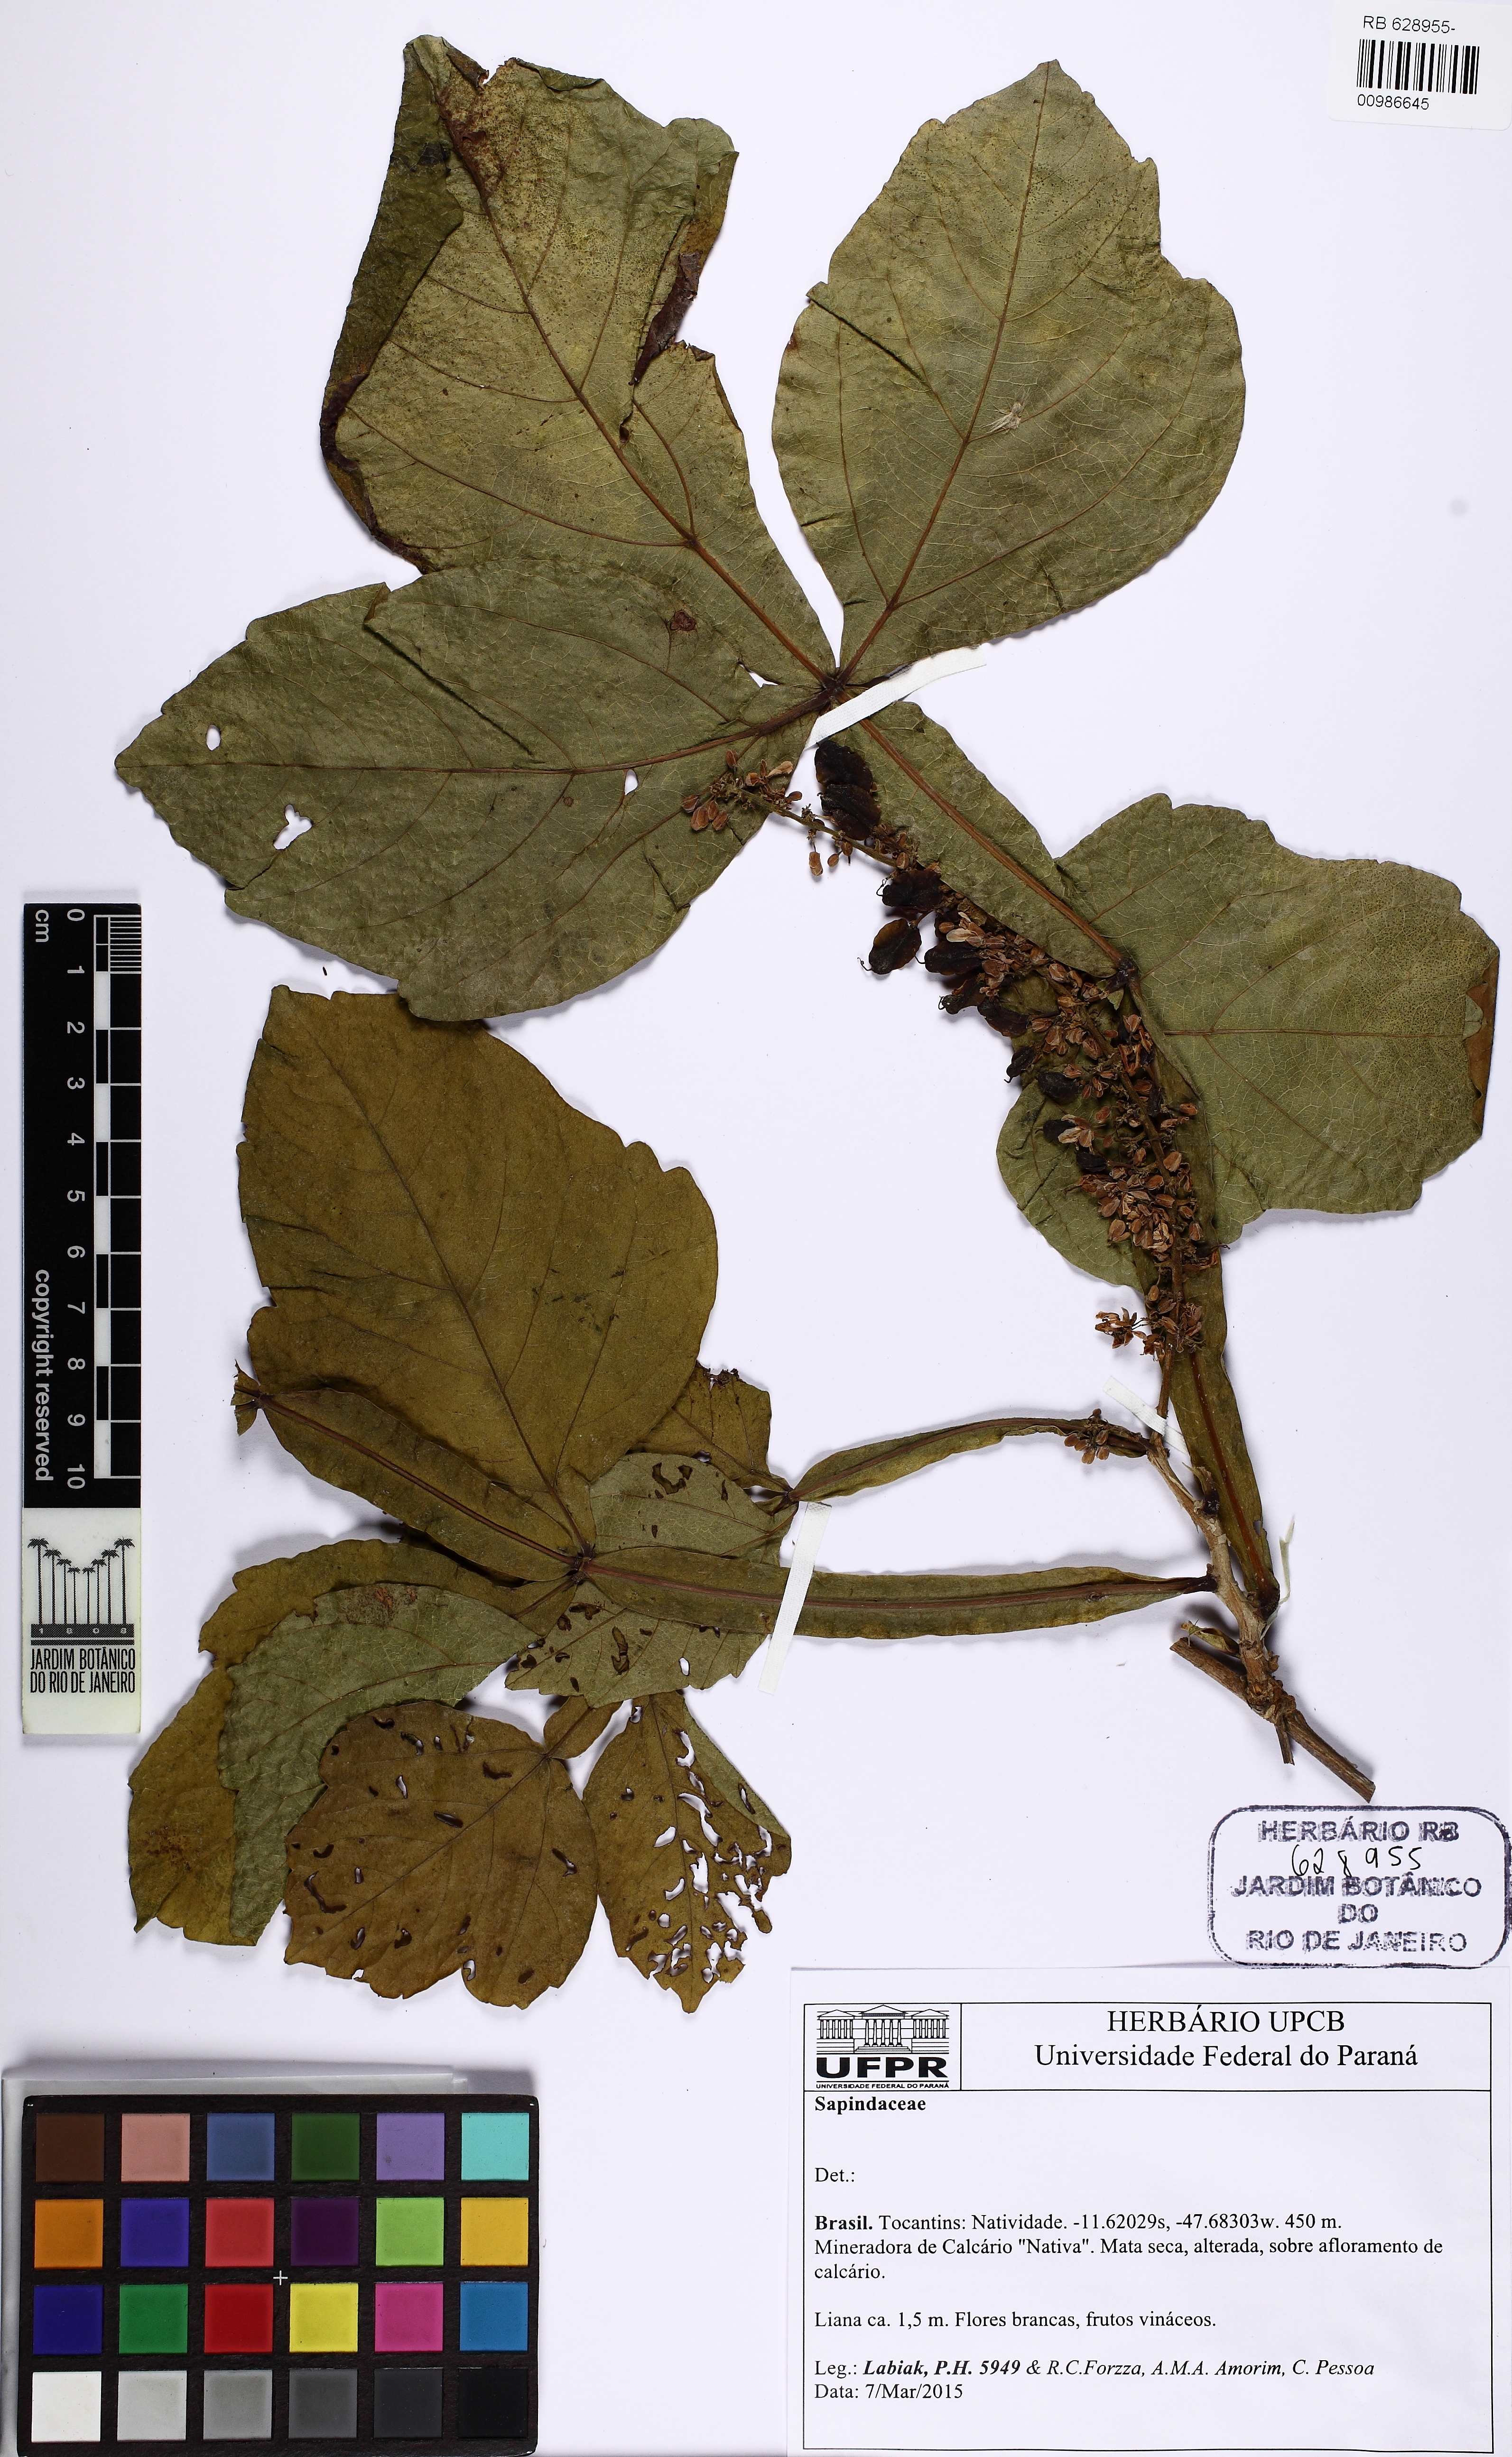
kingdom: Plantae
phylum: Tracheophyta
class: Magnoliopsida
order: Sapindales
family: Sapindaceae
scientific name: Sapindaceae
